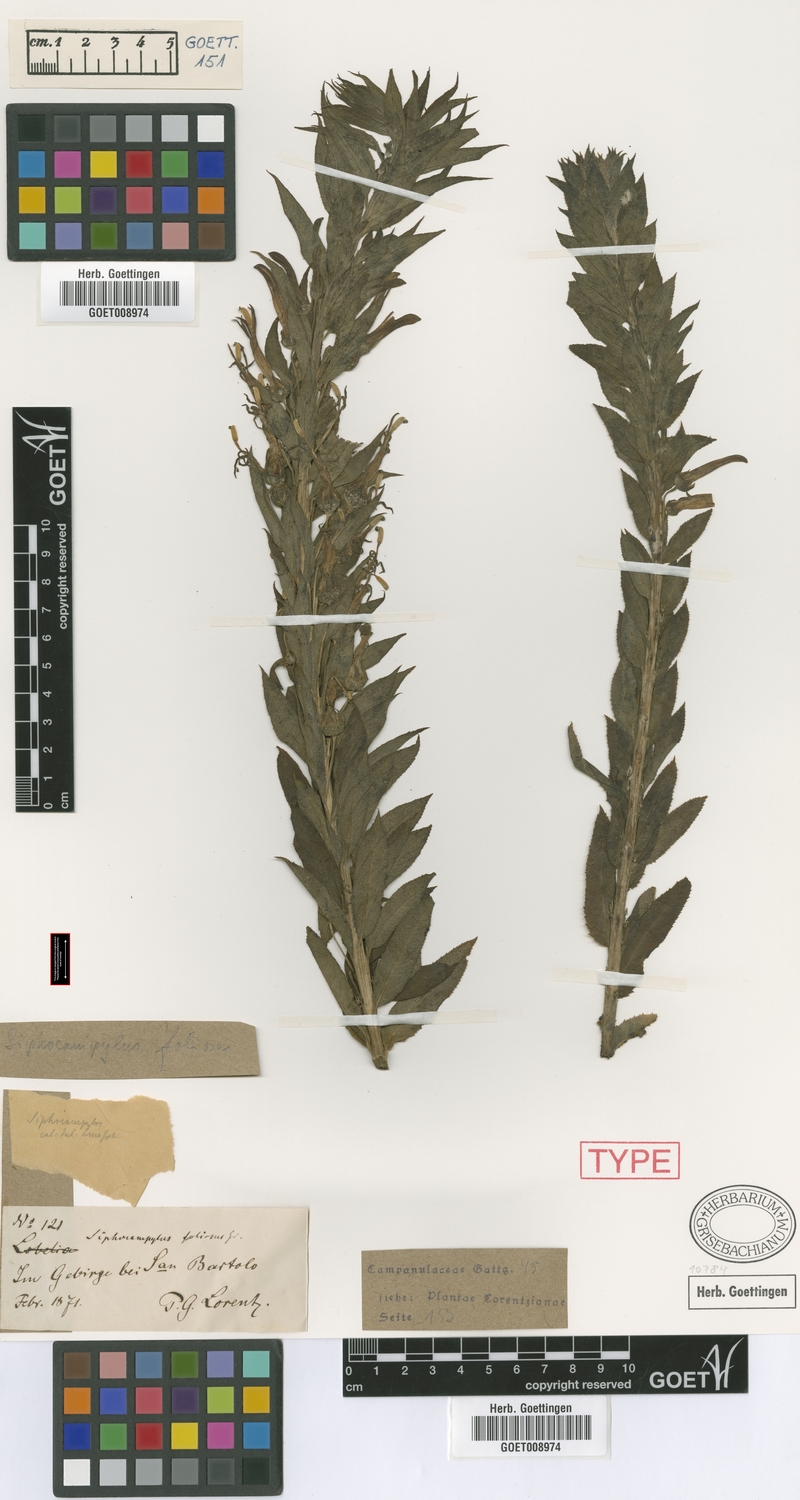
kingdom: Plantae
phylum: Tracheophyta
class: Magnoliopsida
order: Asterales
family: Campanulaceae
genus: Siphocampylus
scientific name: Siphocampylus foliosus
